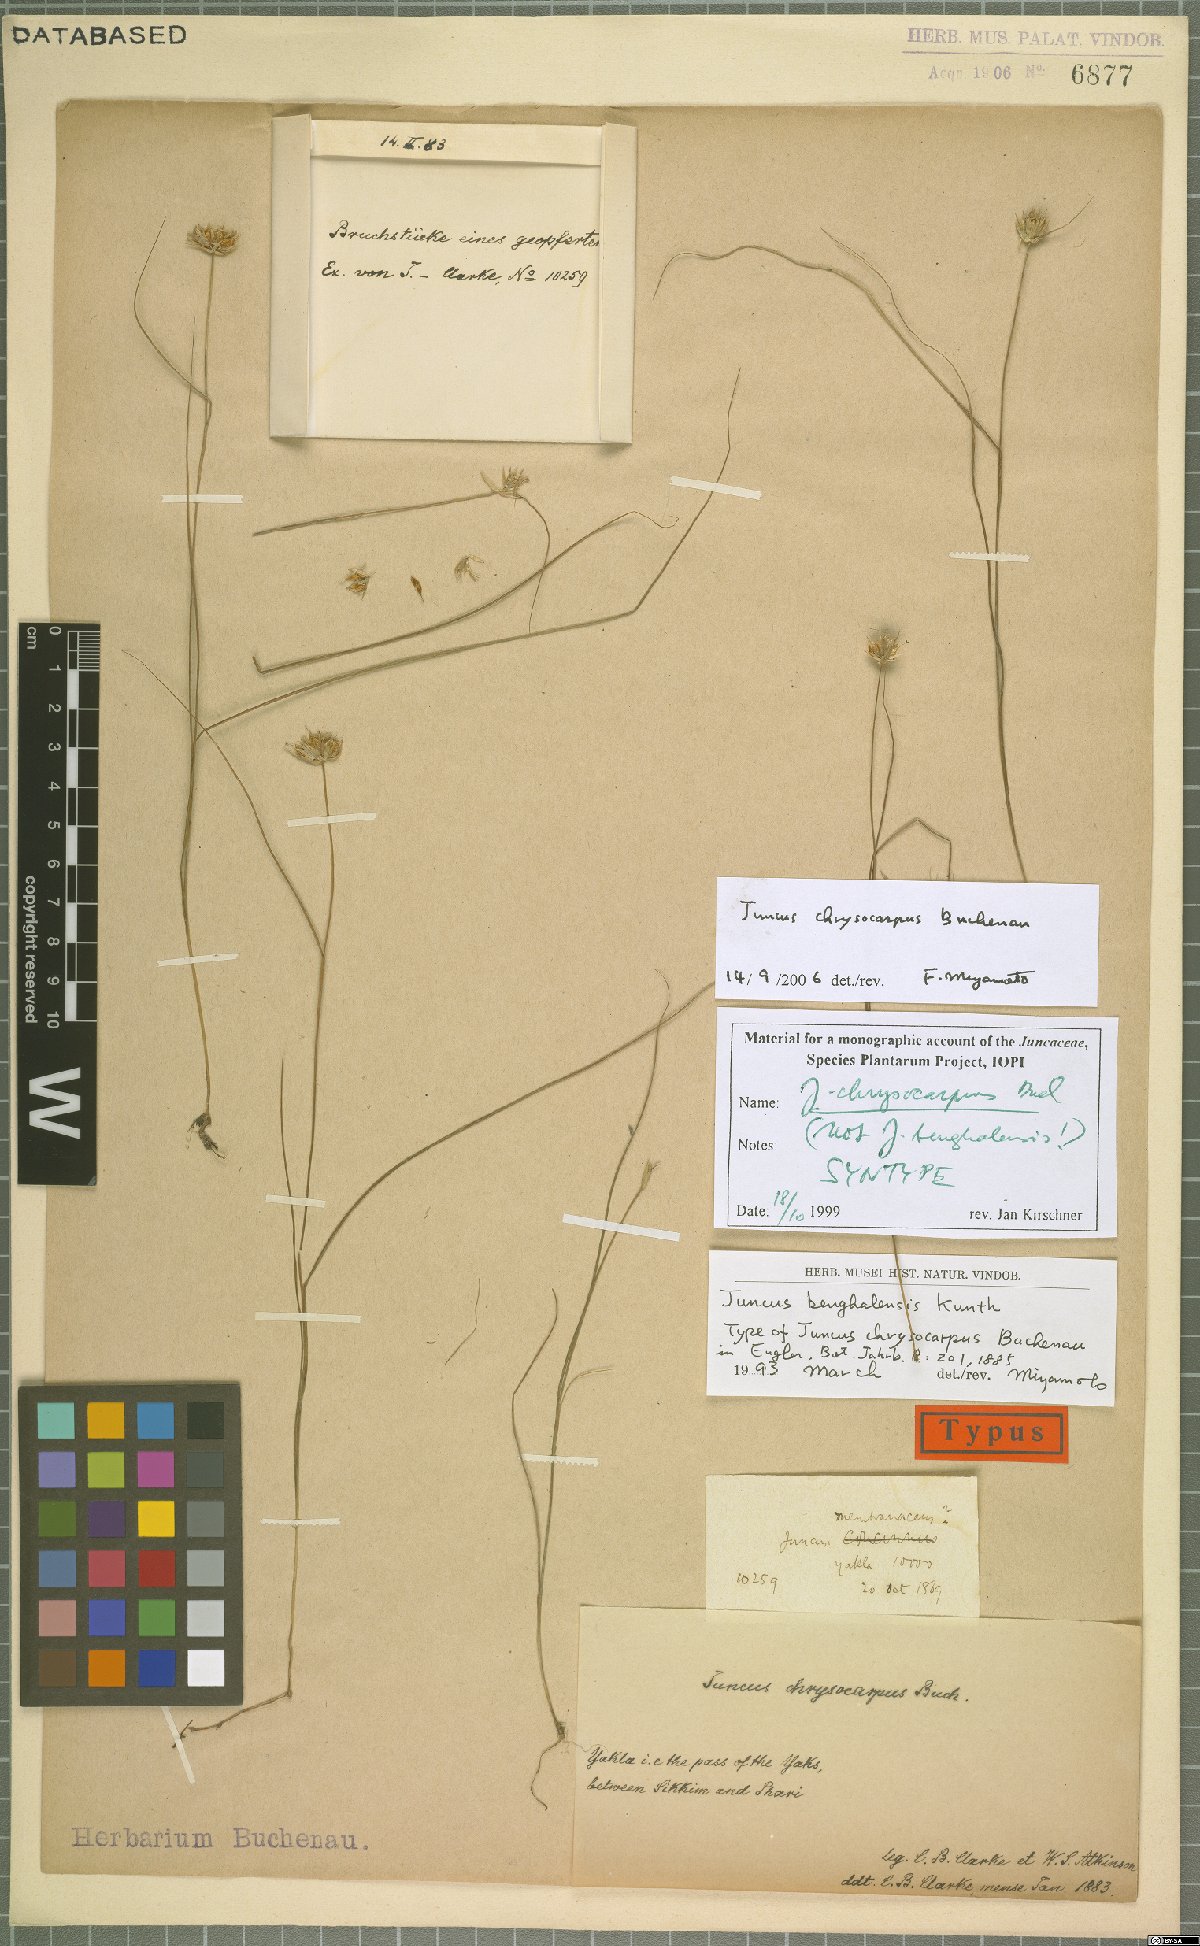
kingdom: Plantae
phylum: Tracheophyta
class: Liliopsida
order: Poales
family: Juncaceae
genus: Juncus
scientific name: Juncus chrysocarpus
